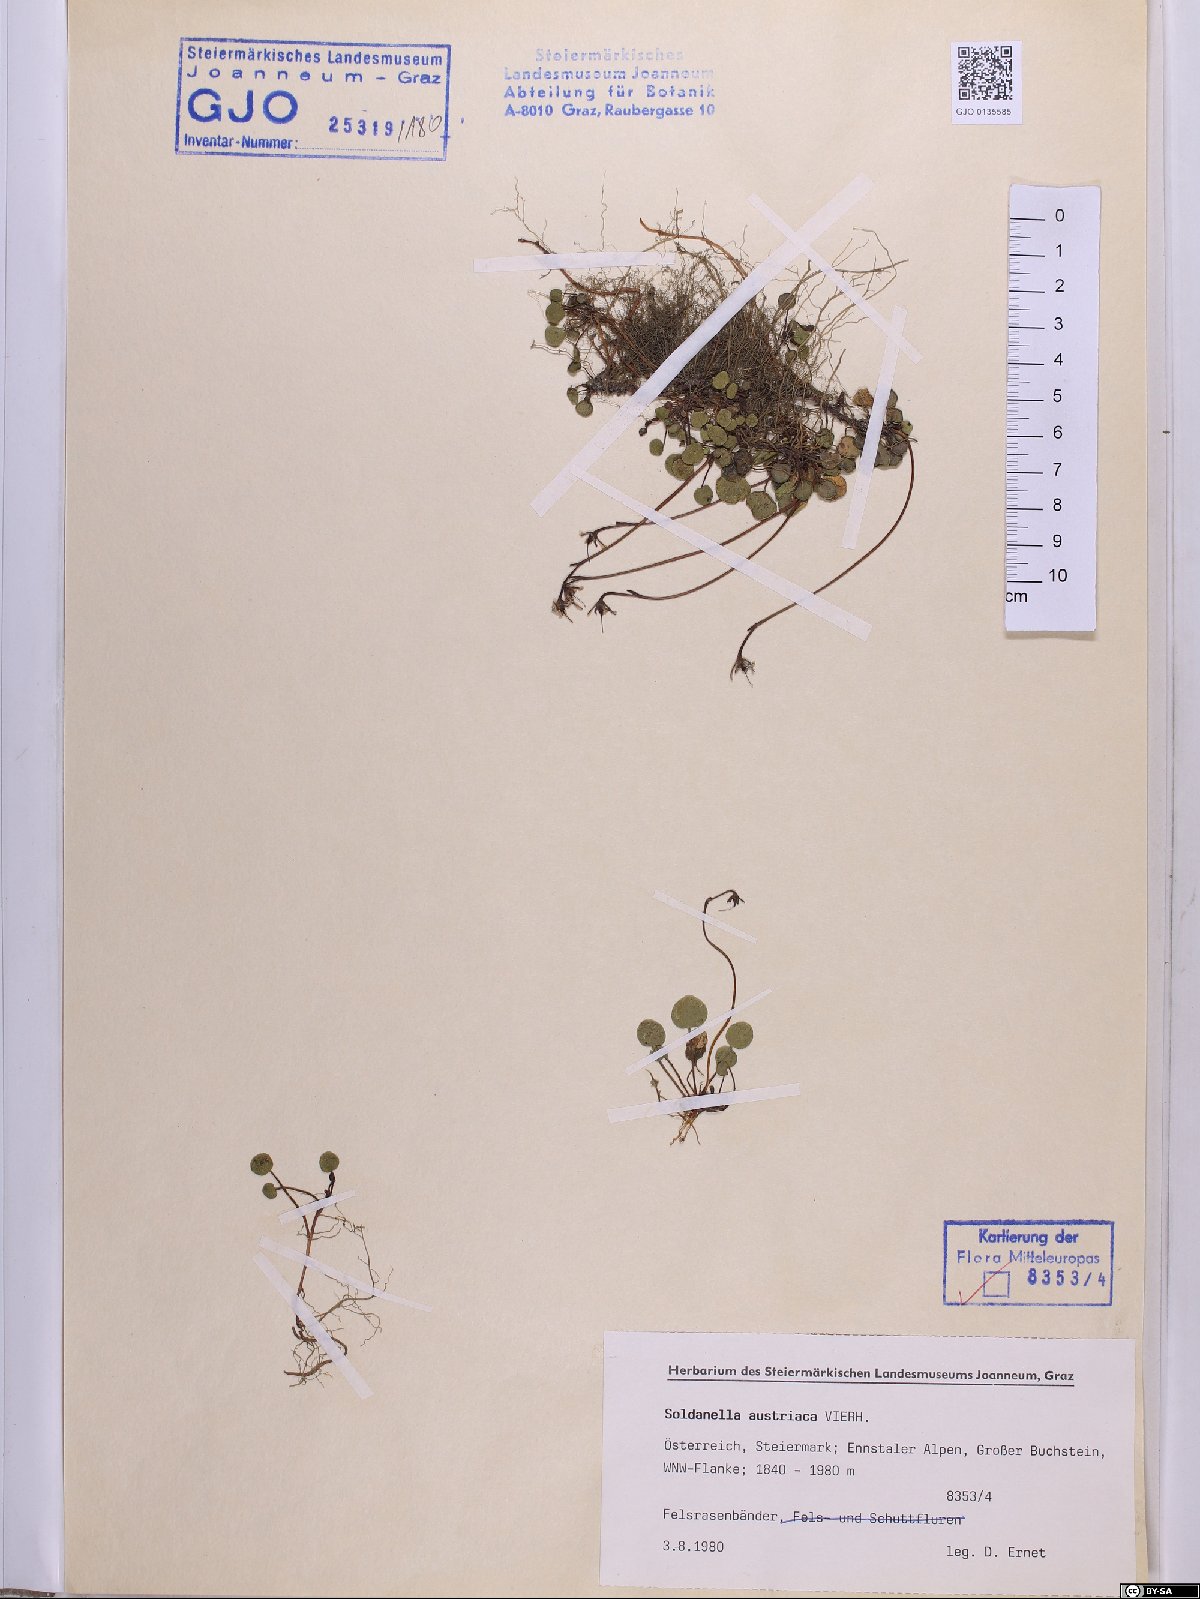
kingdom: Plantae
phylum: Tracheophyta
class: Magnoliopsida
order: Ericales
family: Primulaceae
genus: Soldanella
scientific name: Soldanella austriaca
